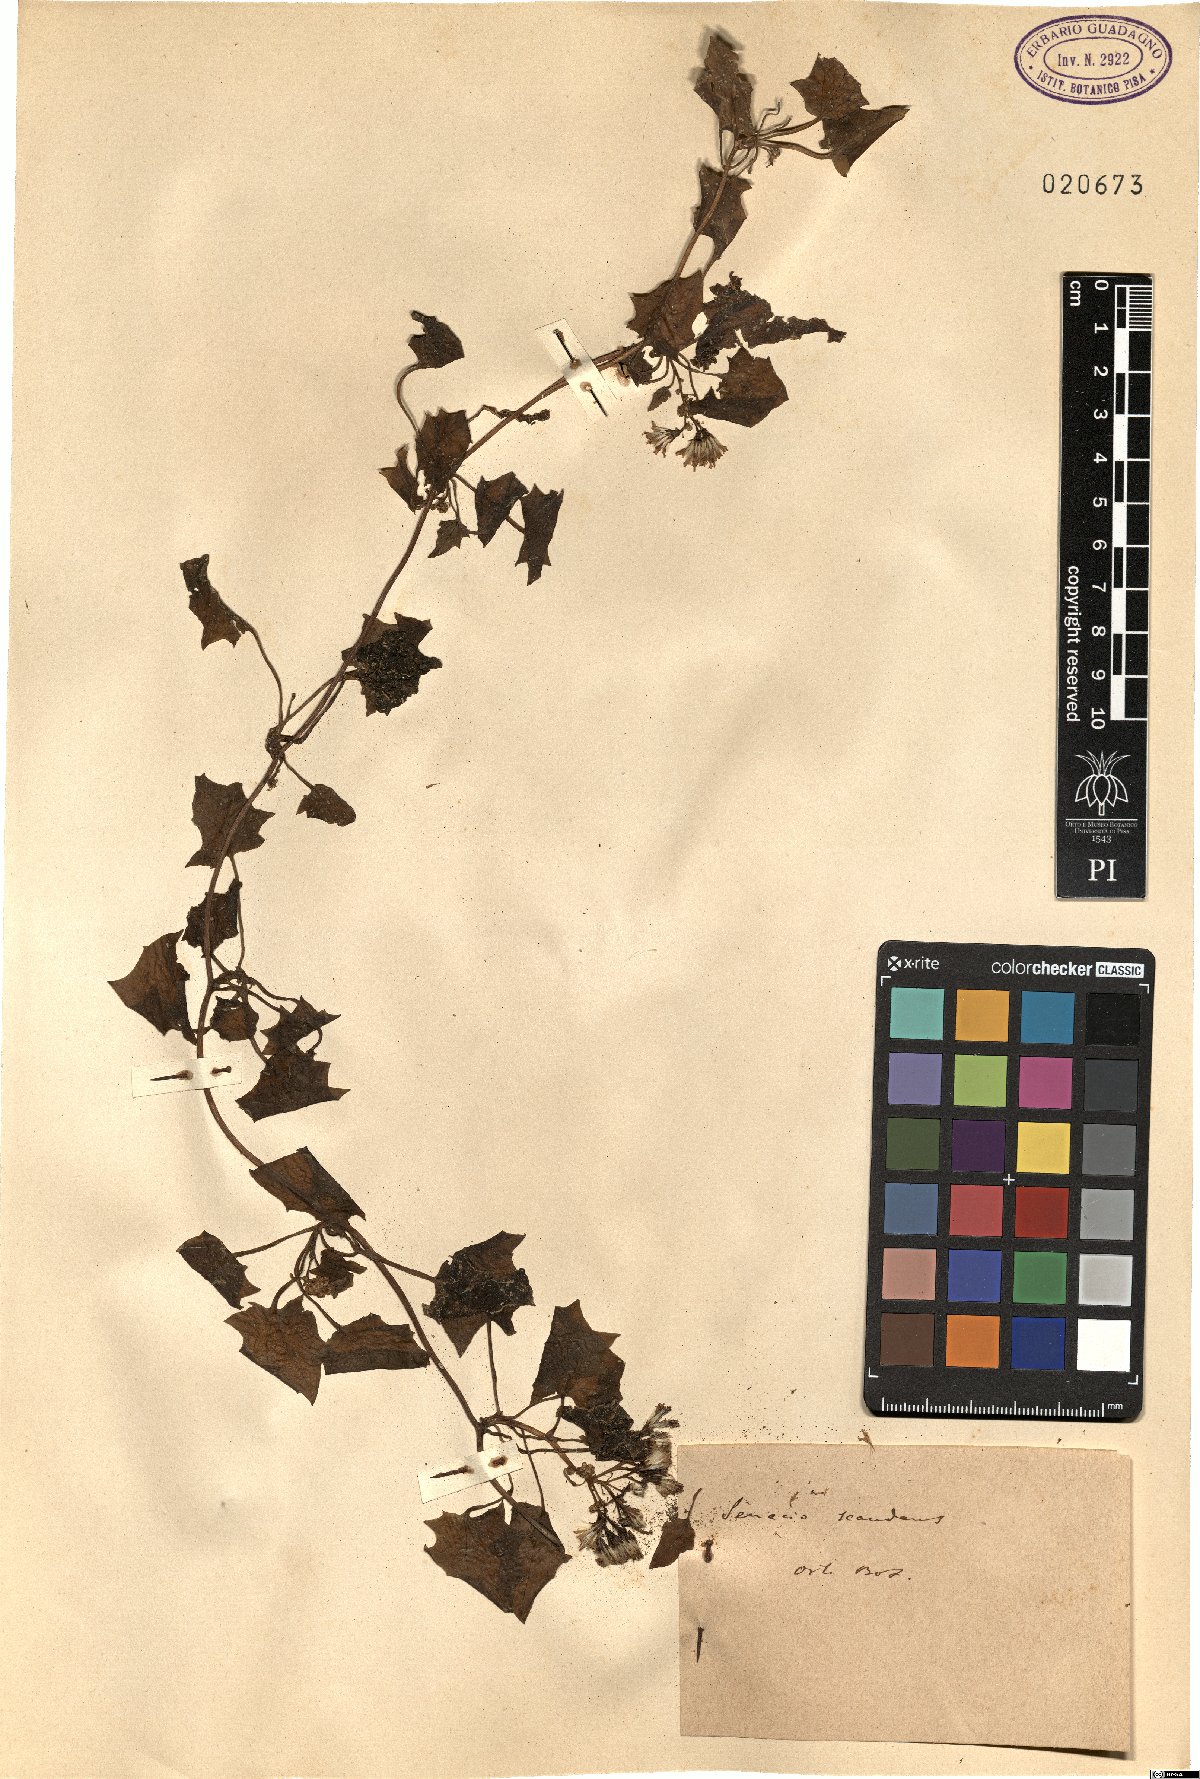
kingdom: Plantae
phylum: Tracheophyta
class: Magnoliopsida
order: Asterales
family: Asteraceae
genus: Senecio
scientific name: Senecio scandens
